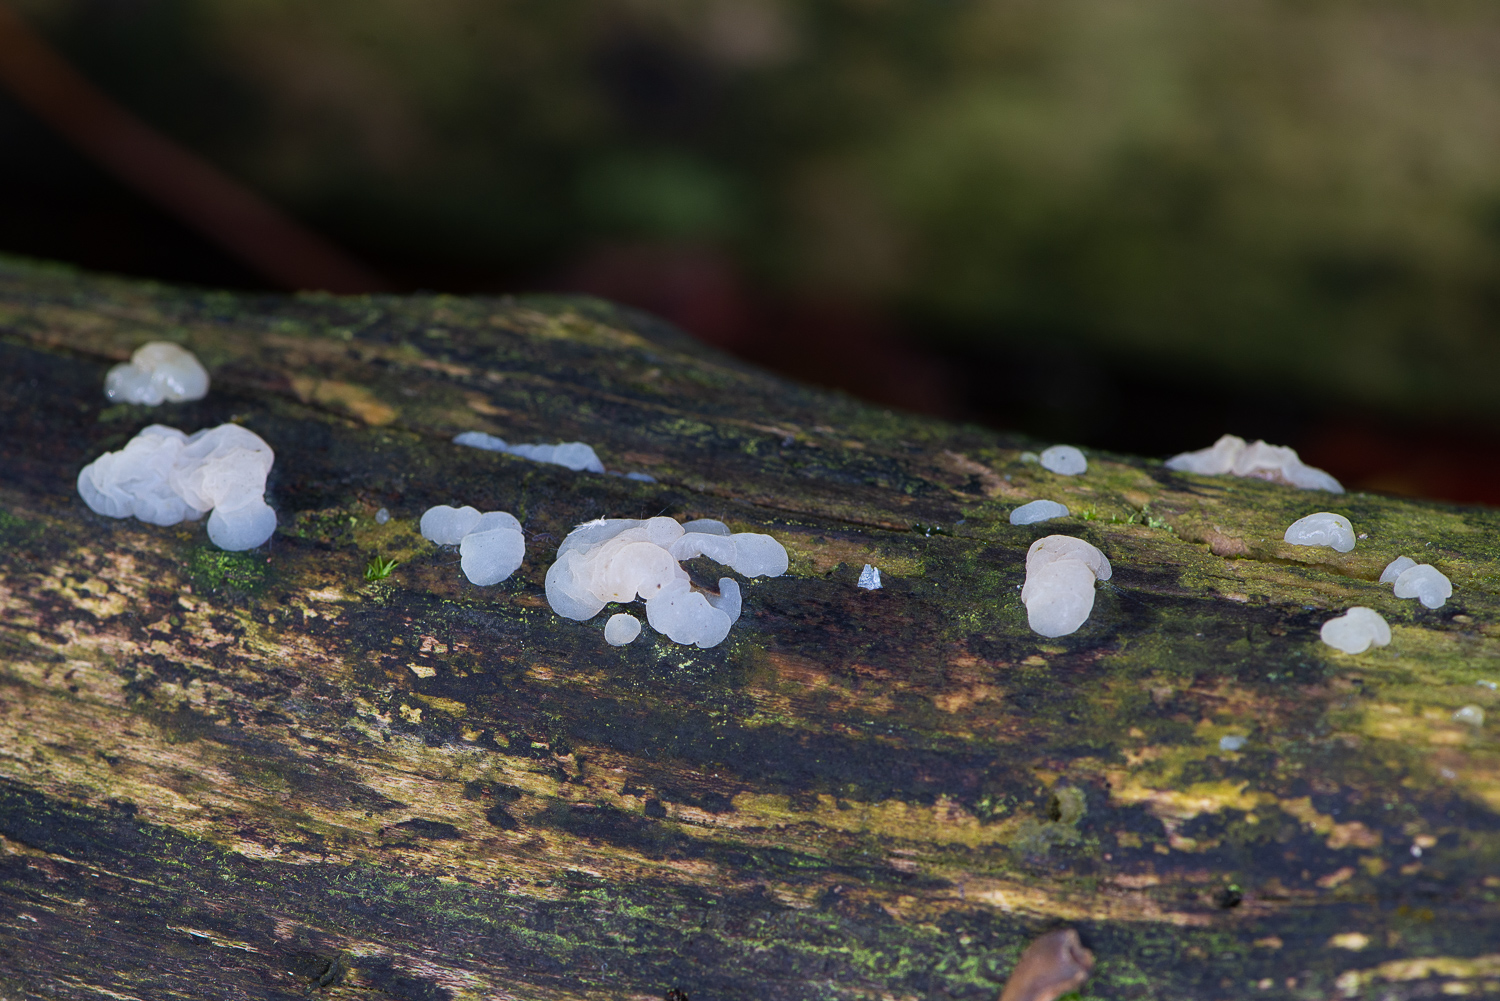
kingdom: Fungi
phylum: Basidiomycota
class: Agaricomycetes
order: Auriculariales
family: Hyaloriaceae
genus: Myxarium
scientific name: Myxarium
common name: bævretop
